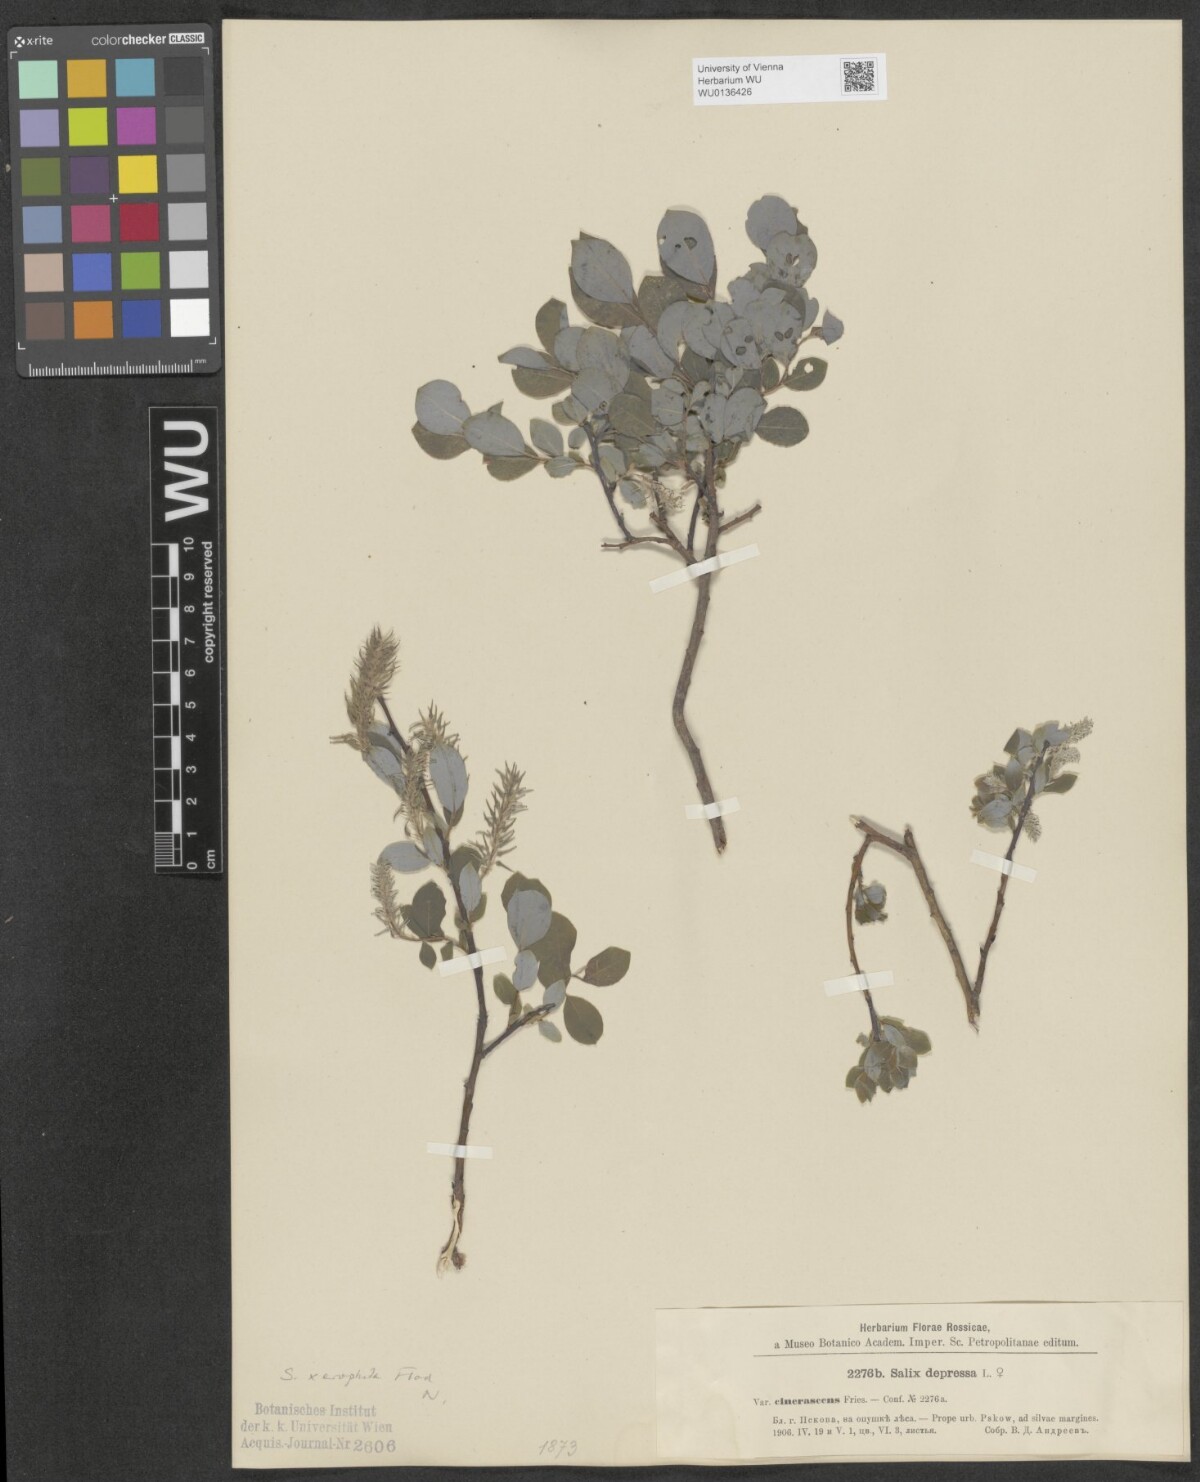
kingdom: Plantae
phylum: Tracheophyta
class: Magnoliopsida
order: Malpighiales
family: Salicaceae
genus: Salix
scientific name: Salix lanata
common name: Woolly willow
